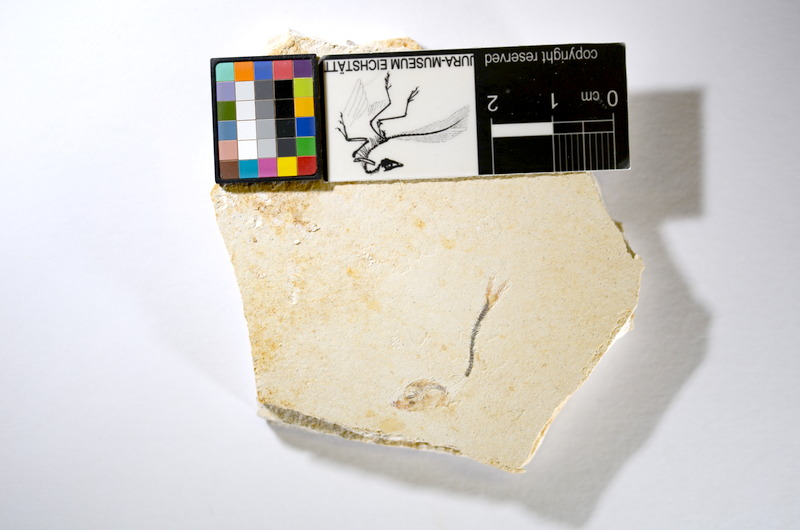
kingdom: Animalia
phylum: Chordata
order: Salmoniformes
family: Orthogonikleithridae
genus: Orthogonikleithrus
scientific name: Orthogonikleithrus hoelli
